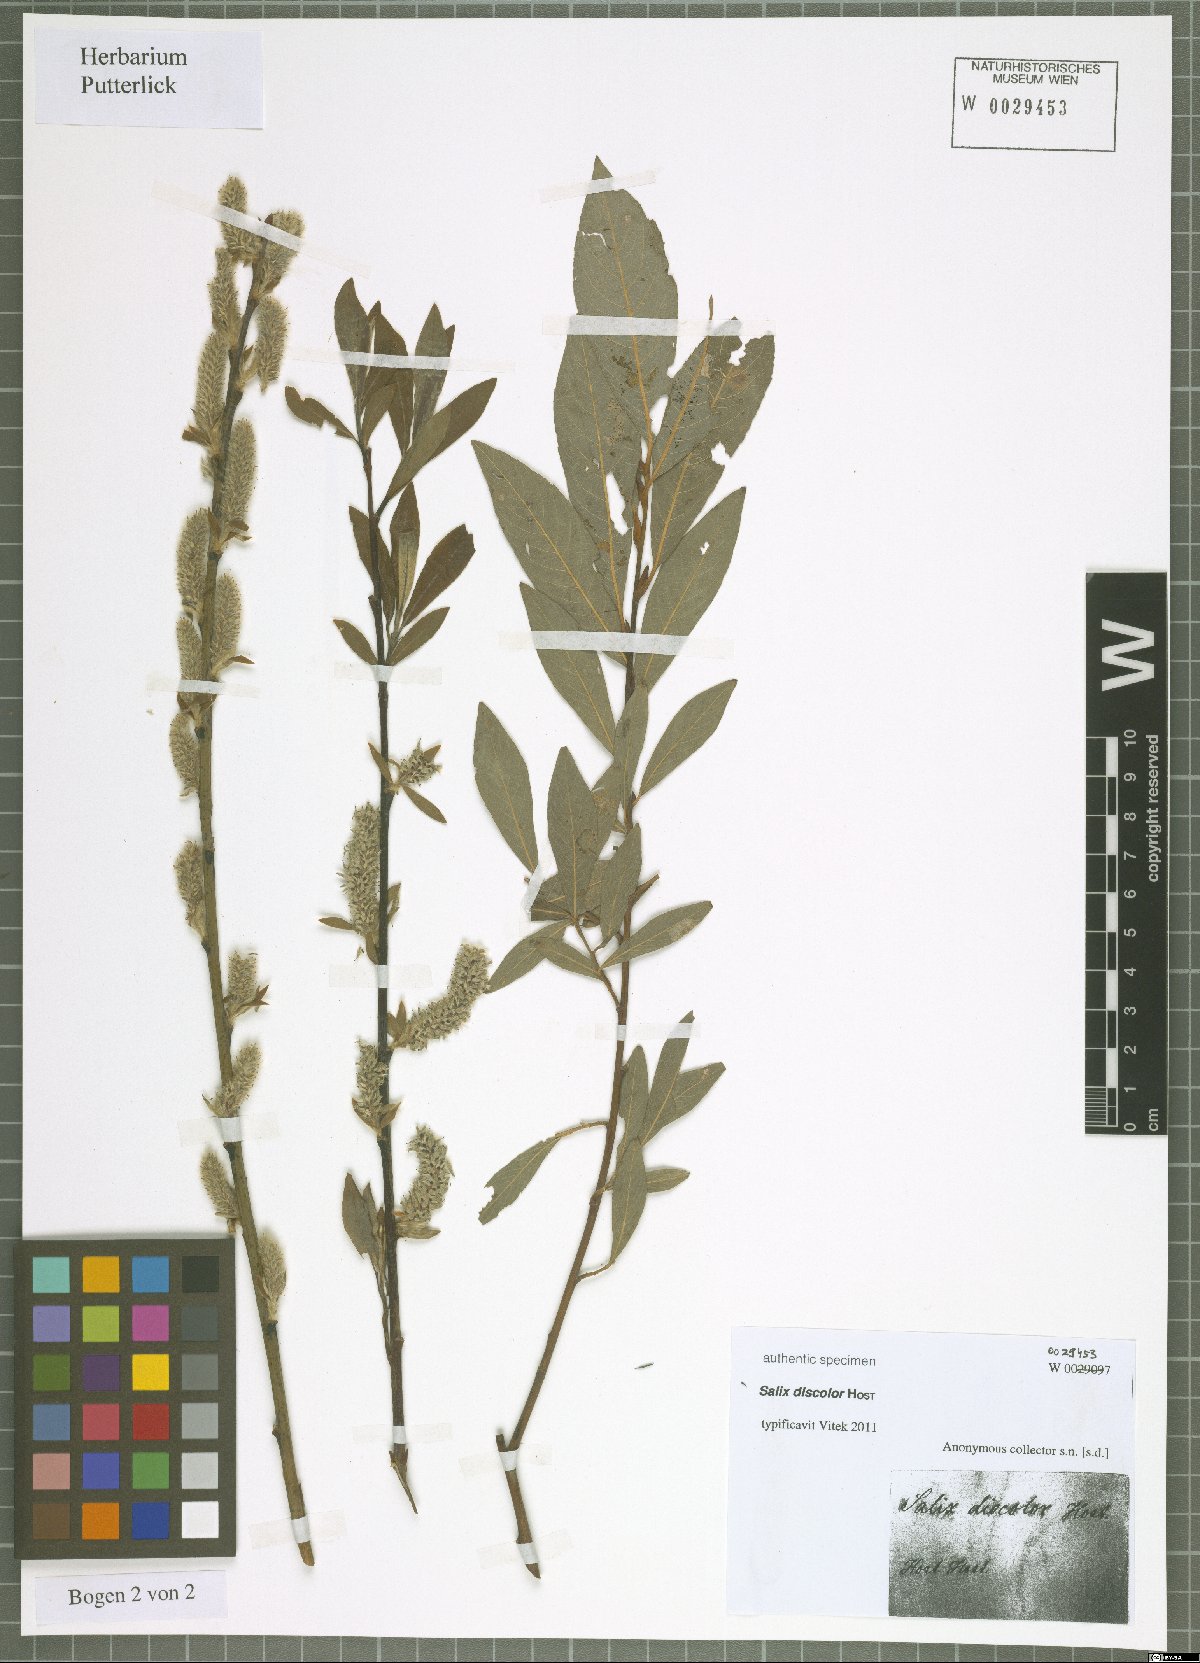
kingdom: Plantae
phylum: Tracheophyta
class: Magnoliopsida
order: Malpighiales
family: Salicaceae
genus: Salix
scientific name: Salix wimmeriana
